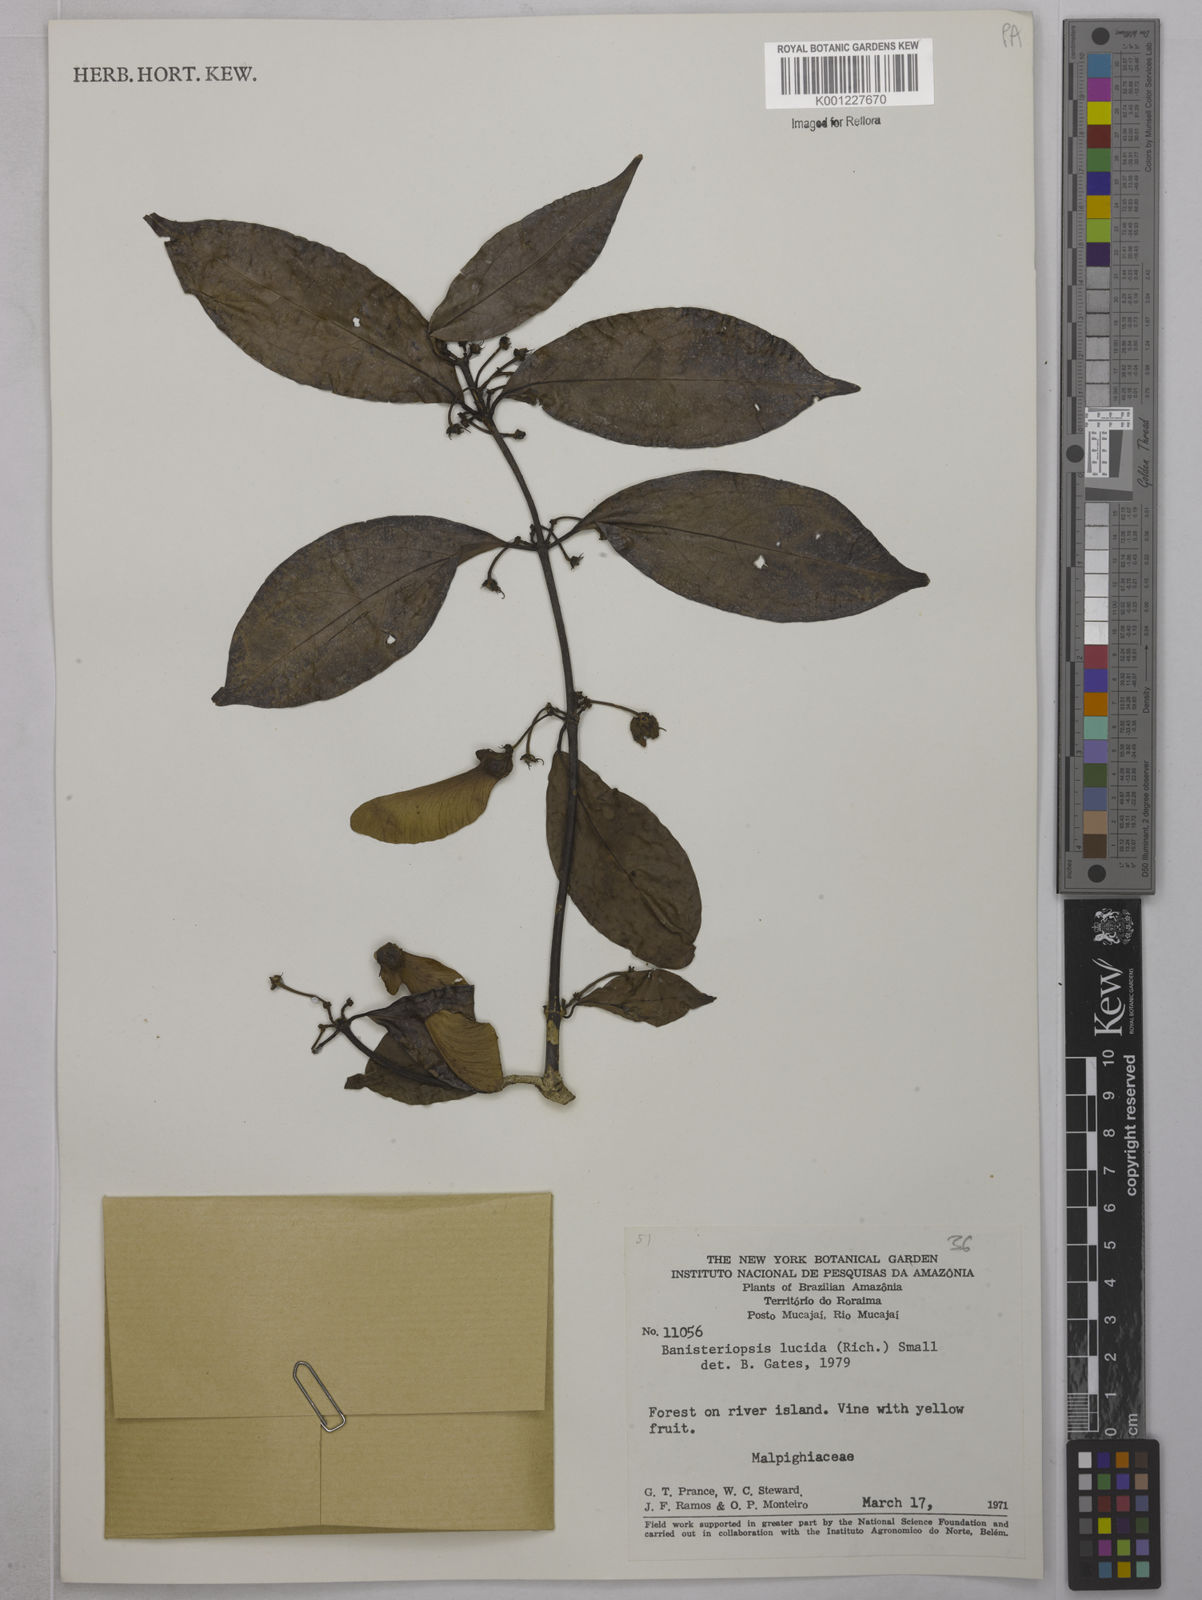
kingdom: Plantae
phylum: Tracheophyta
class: Magnoliopsida
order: Malpighiales
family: Malpighiaceae
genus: Diplopterys
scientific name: Diplopterys lucida
